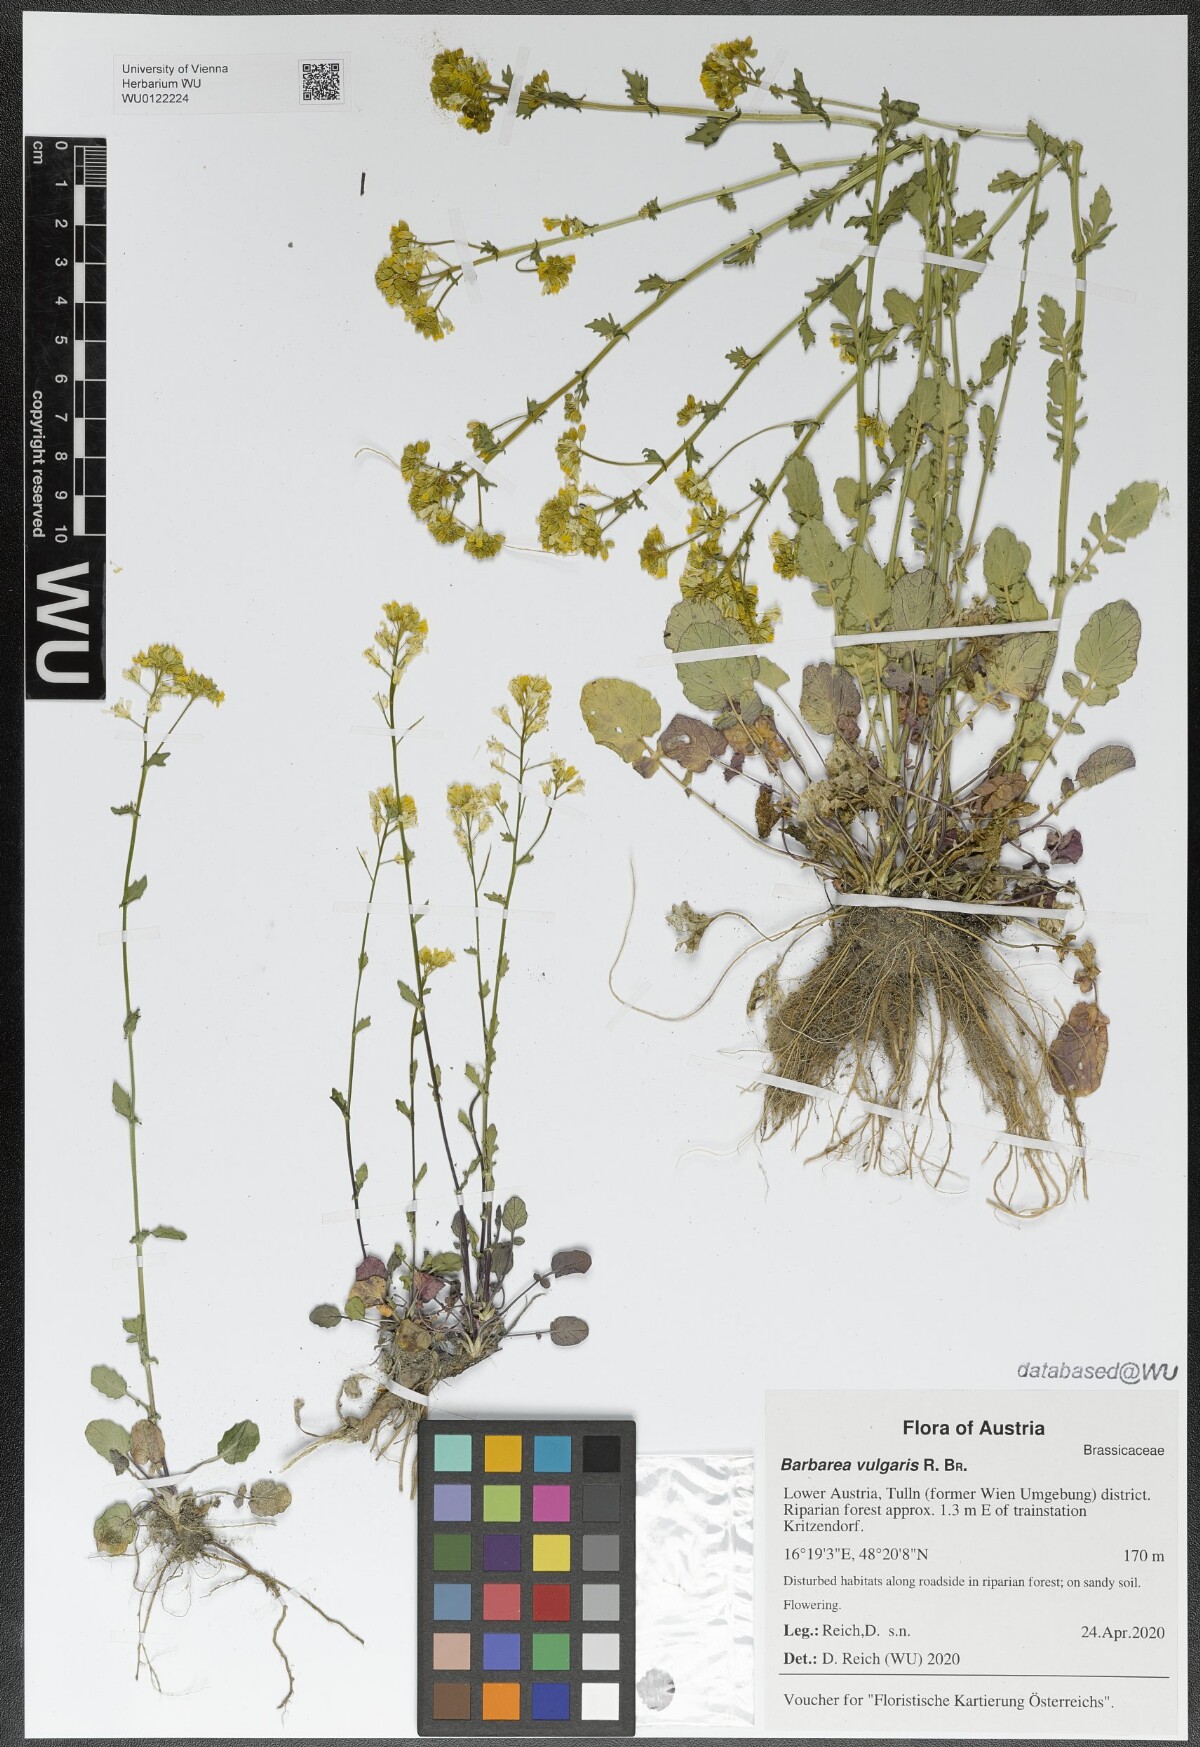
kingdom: Plantae
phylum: Tracheophyta
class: Magnoliopsida
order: Brassicales
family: Brassicaceae
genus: Barbarea
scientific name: Barbarea vulgaris
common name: Cressy-greens
